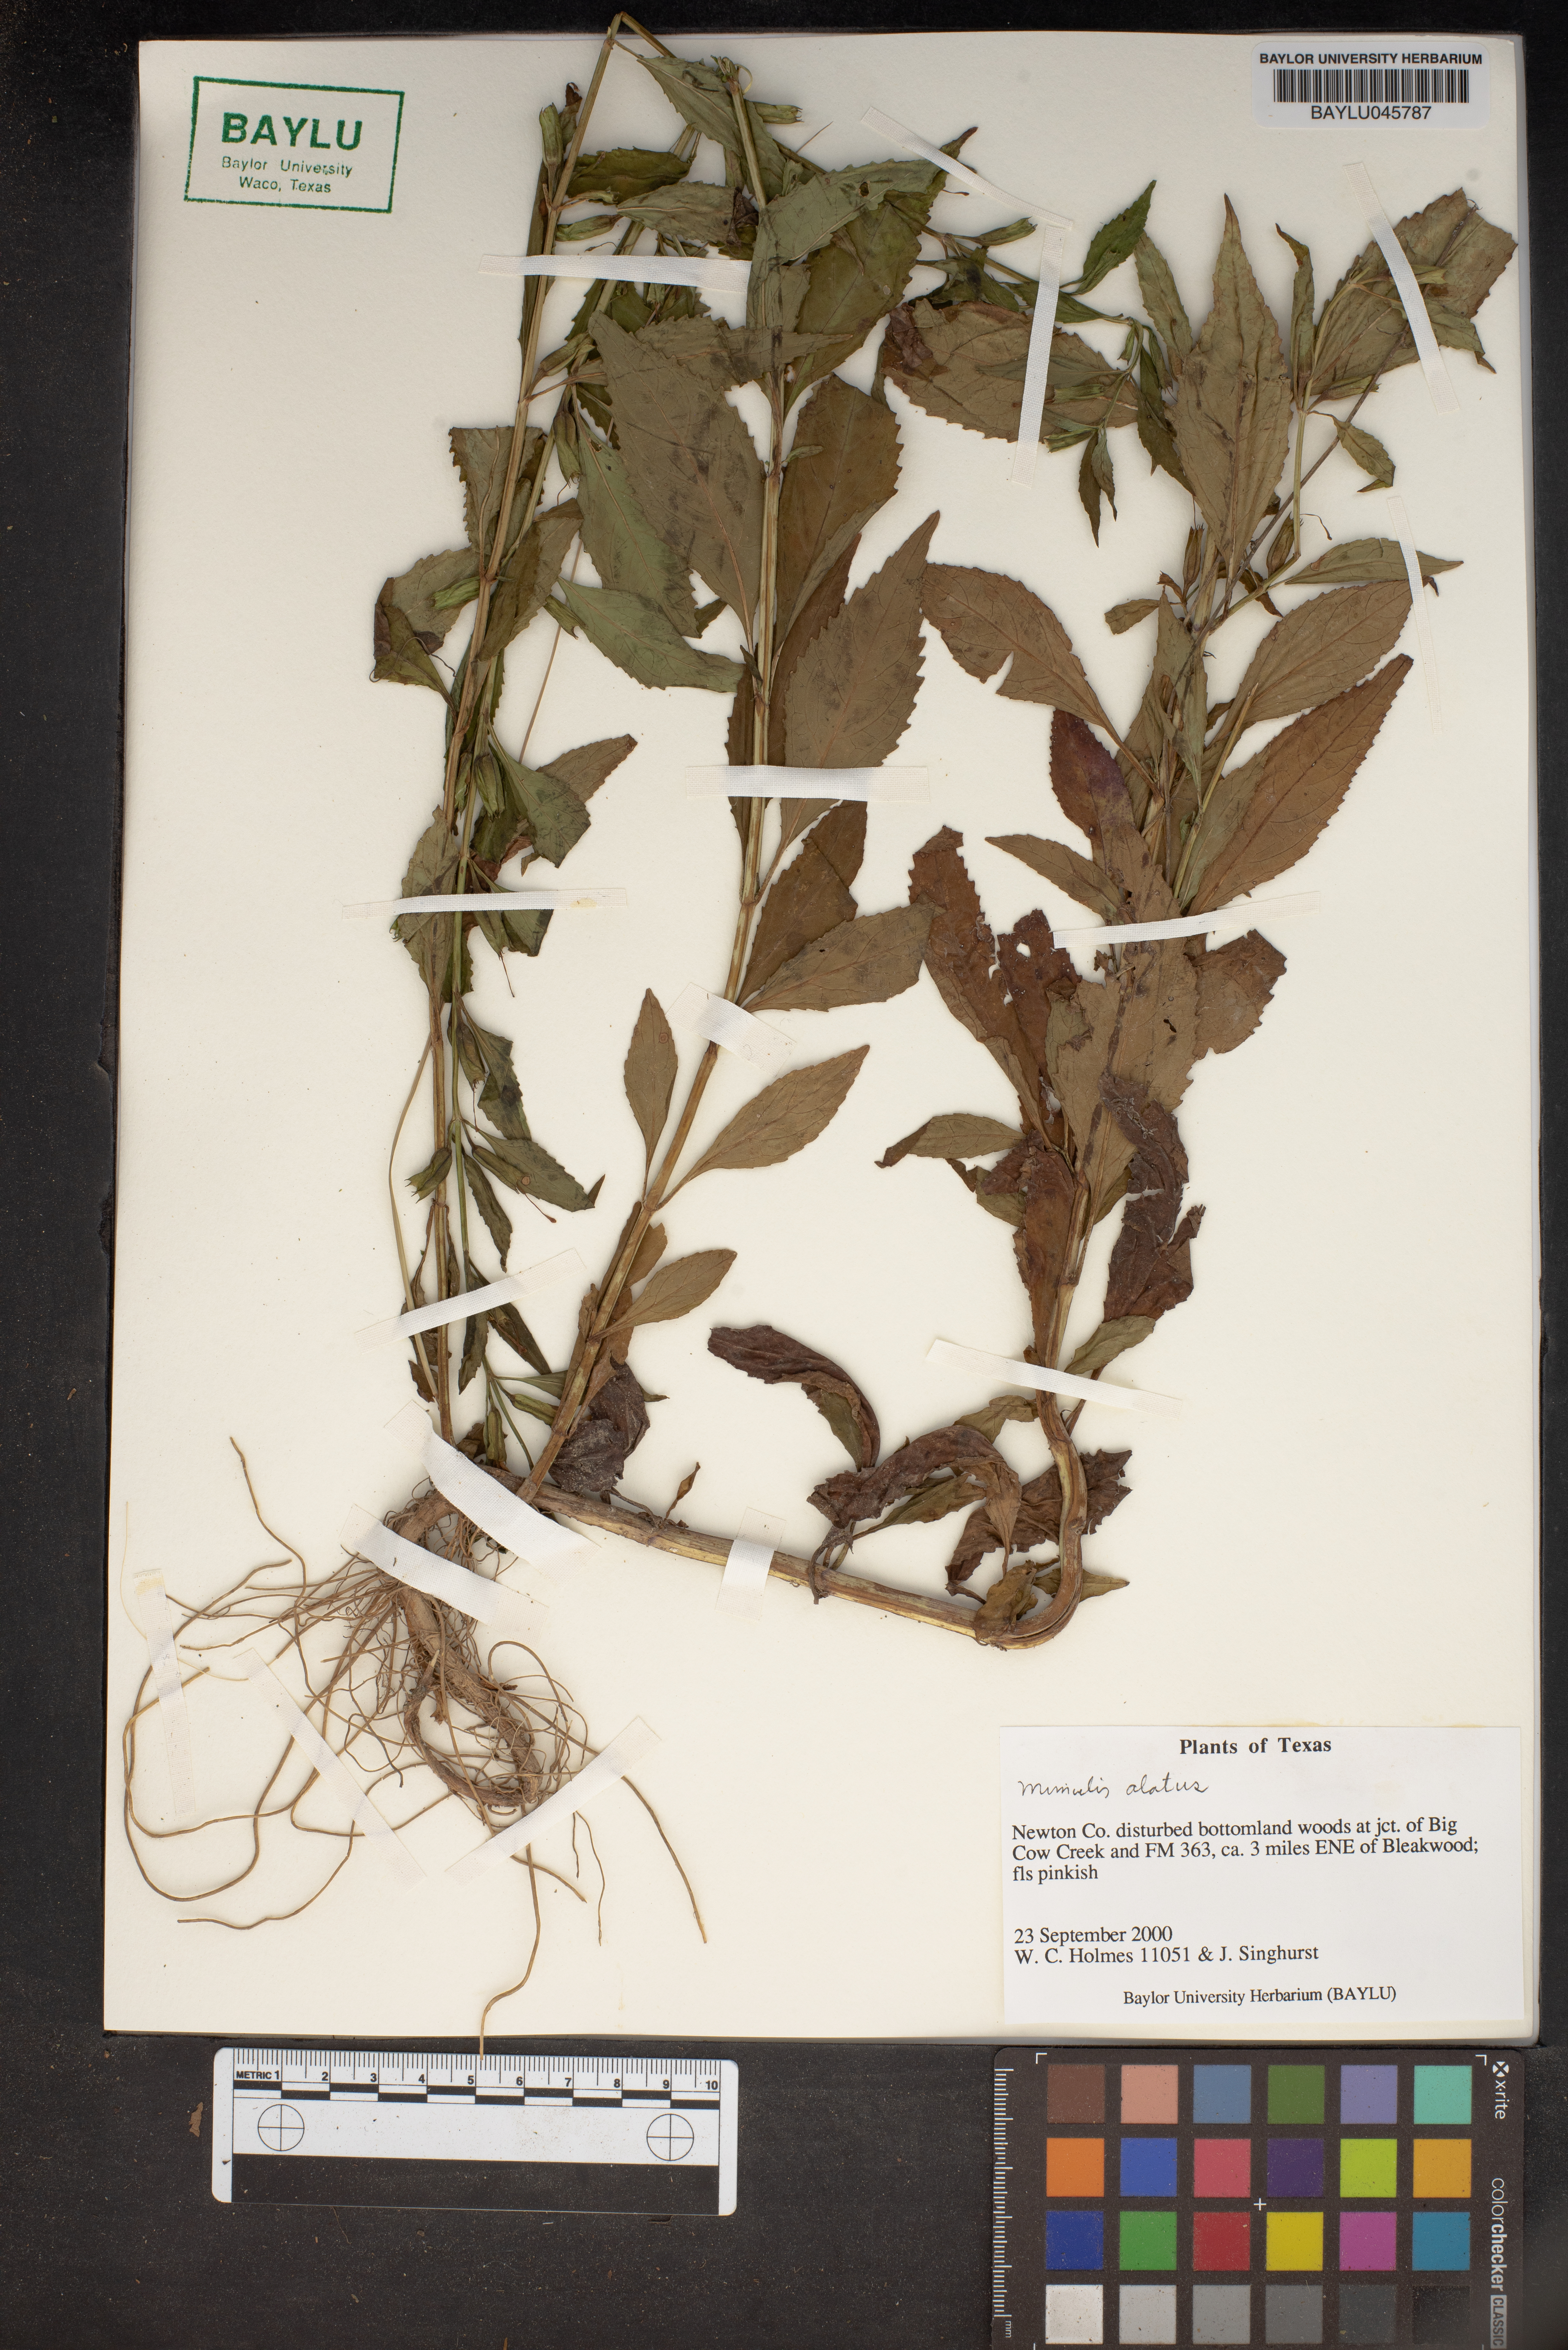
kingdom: Plantae
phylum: Tracheophyta
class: Magnoliopsida
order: Lamiales
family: Phrymaceae
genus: Mimulus
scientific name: Mimulus alatus
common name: Sharp-wing monkey-flower
